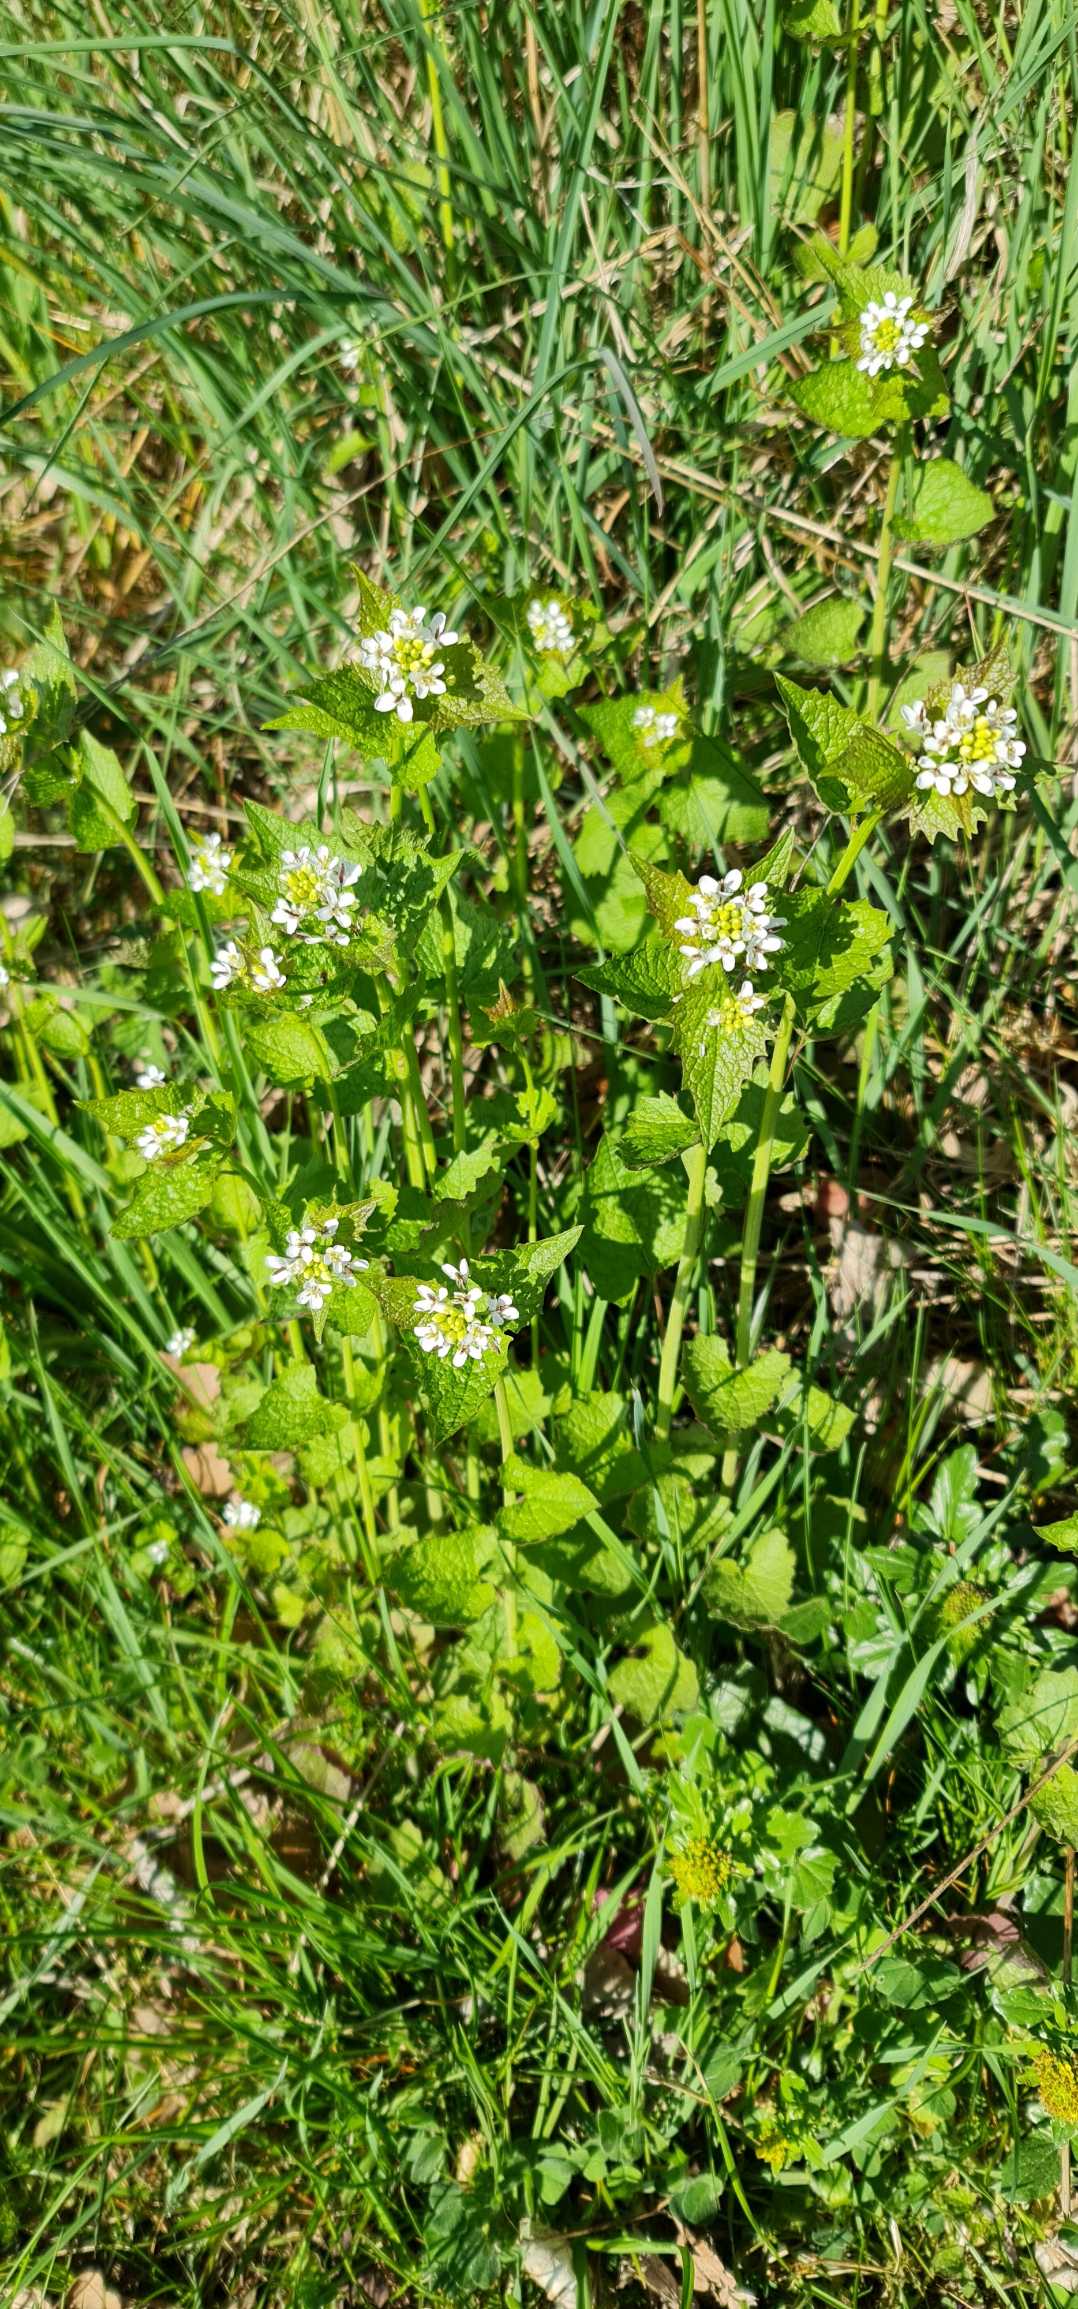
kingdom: Plantae
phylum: Tracheophyta
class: Magnoliopsida
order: Brassicales
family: Brassicaceae
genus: Alliaria
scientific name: Alliaria petiolata
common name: Løgkarse
